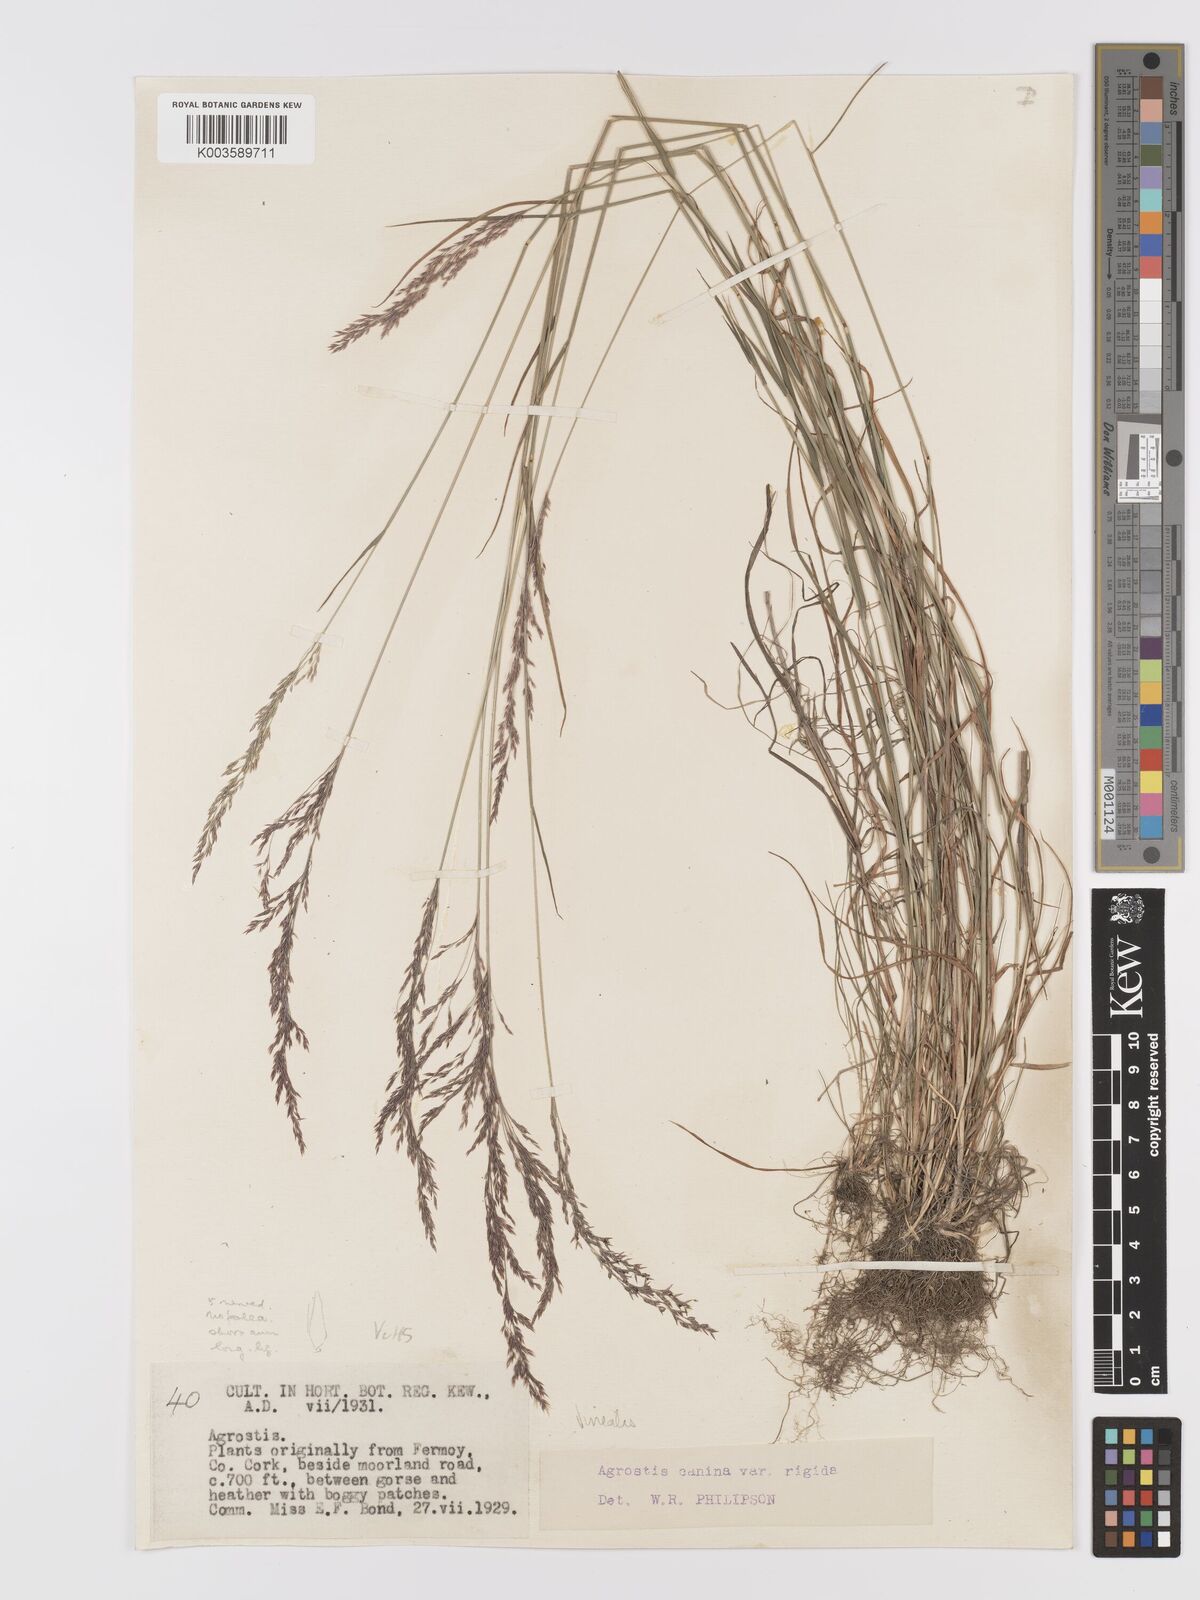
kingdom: Plantae
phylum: Tracheophyta
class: Liliopsida
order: Poales
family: Poaceae
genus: Agrostis
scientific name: Agrostis
